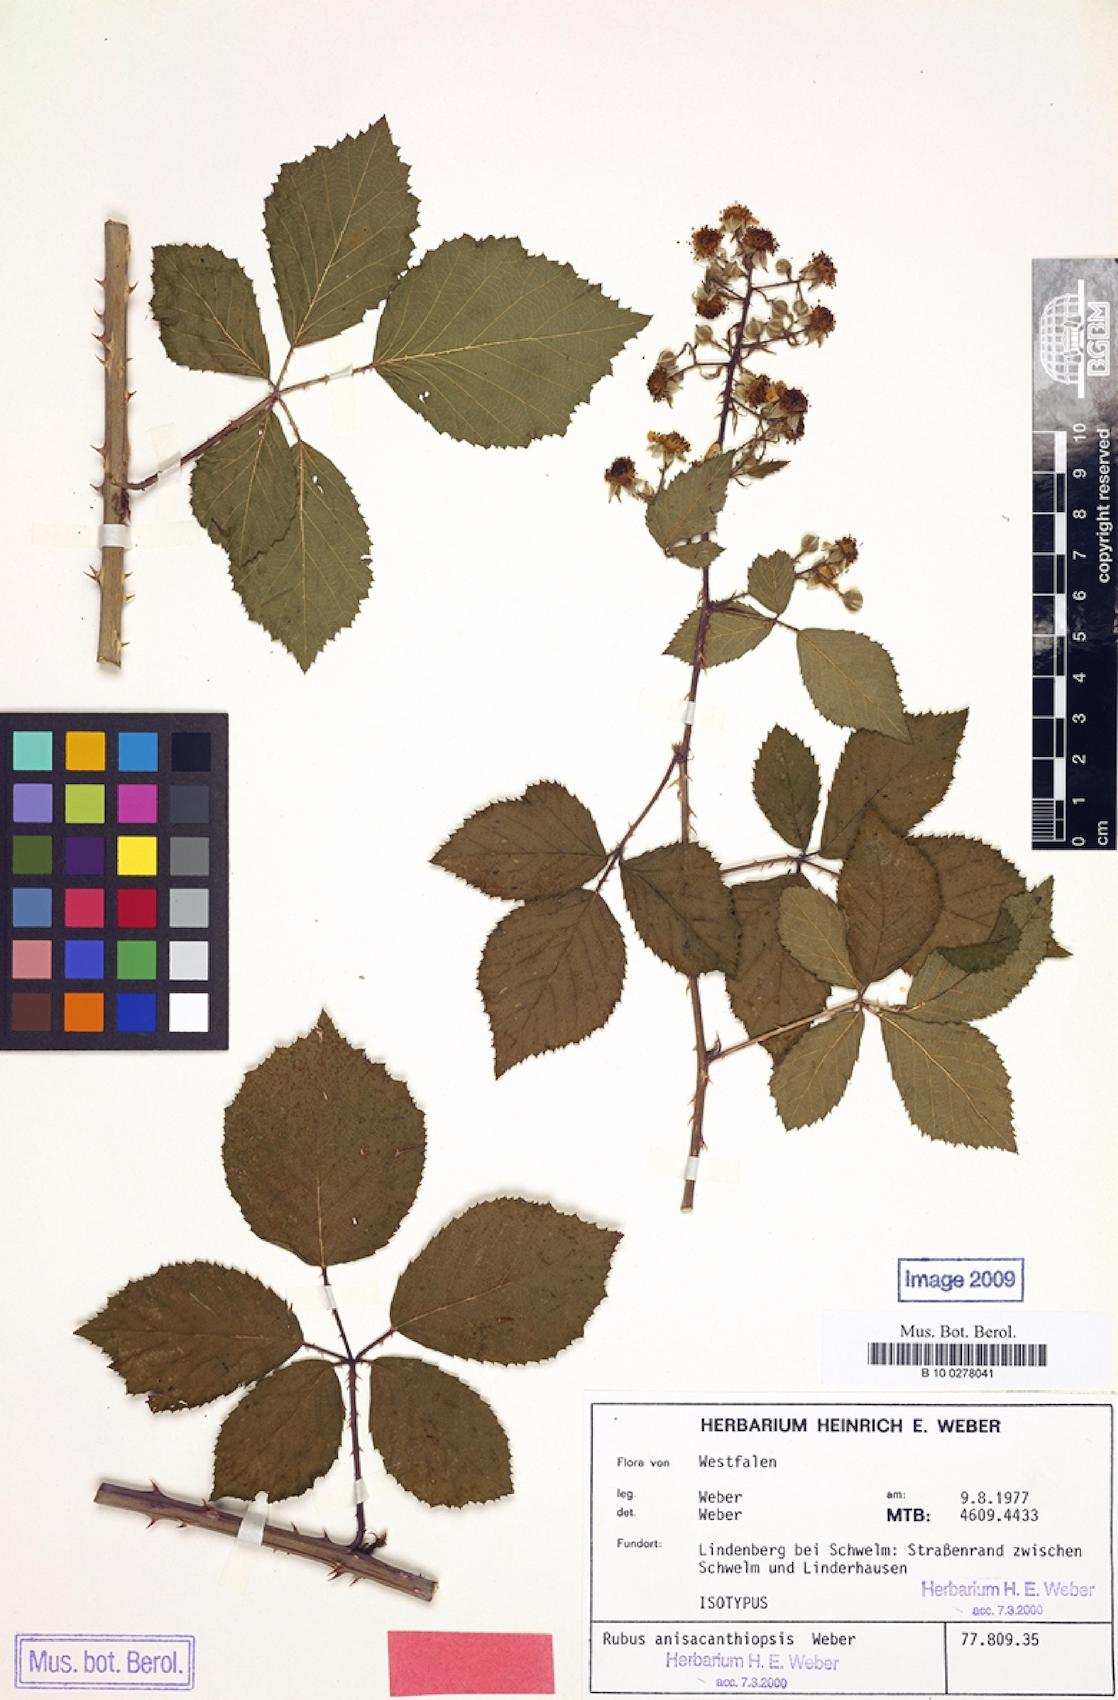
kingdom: Plantae
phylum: Tracheophyta
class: Magnoliopsida
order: Rosales
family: Rosaceae
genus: Rubus
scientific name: Rubus anisacanthiopsis
